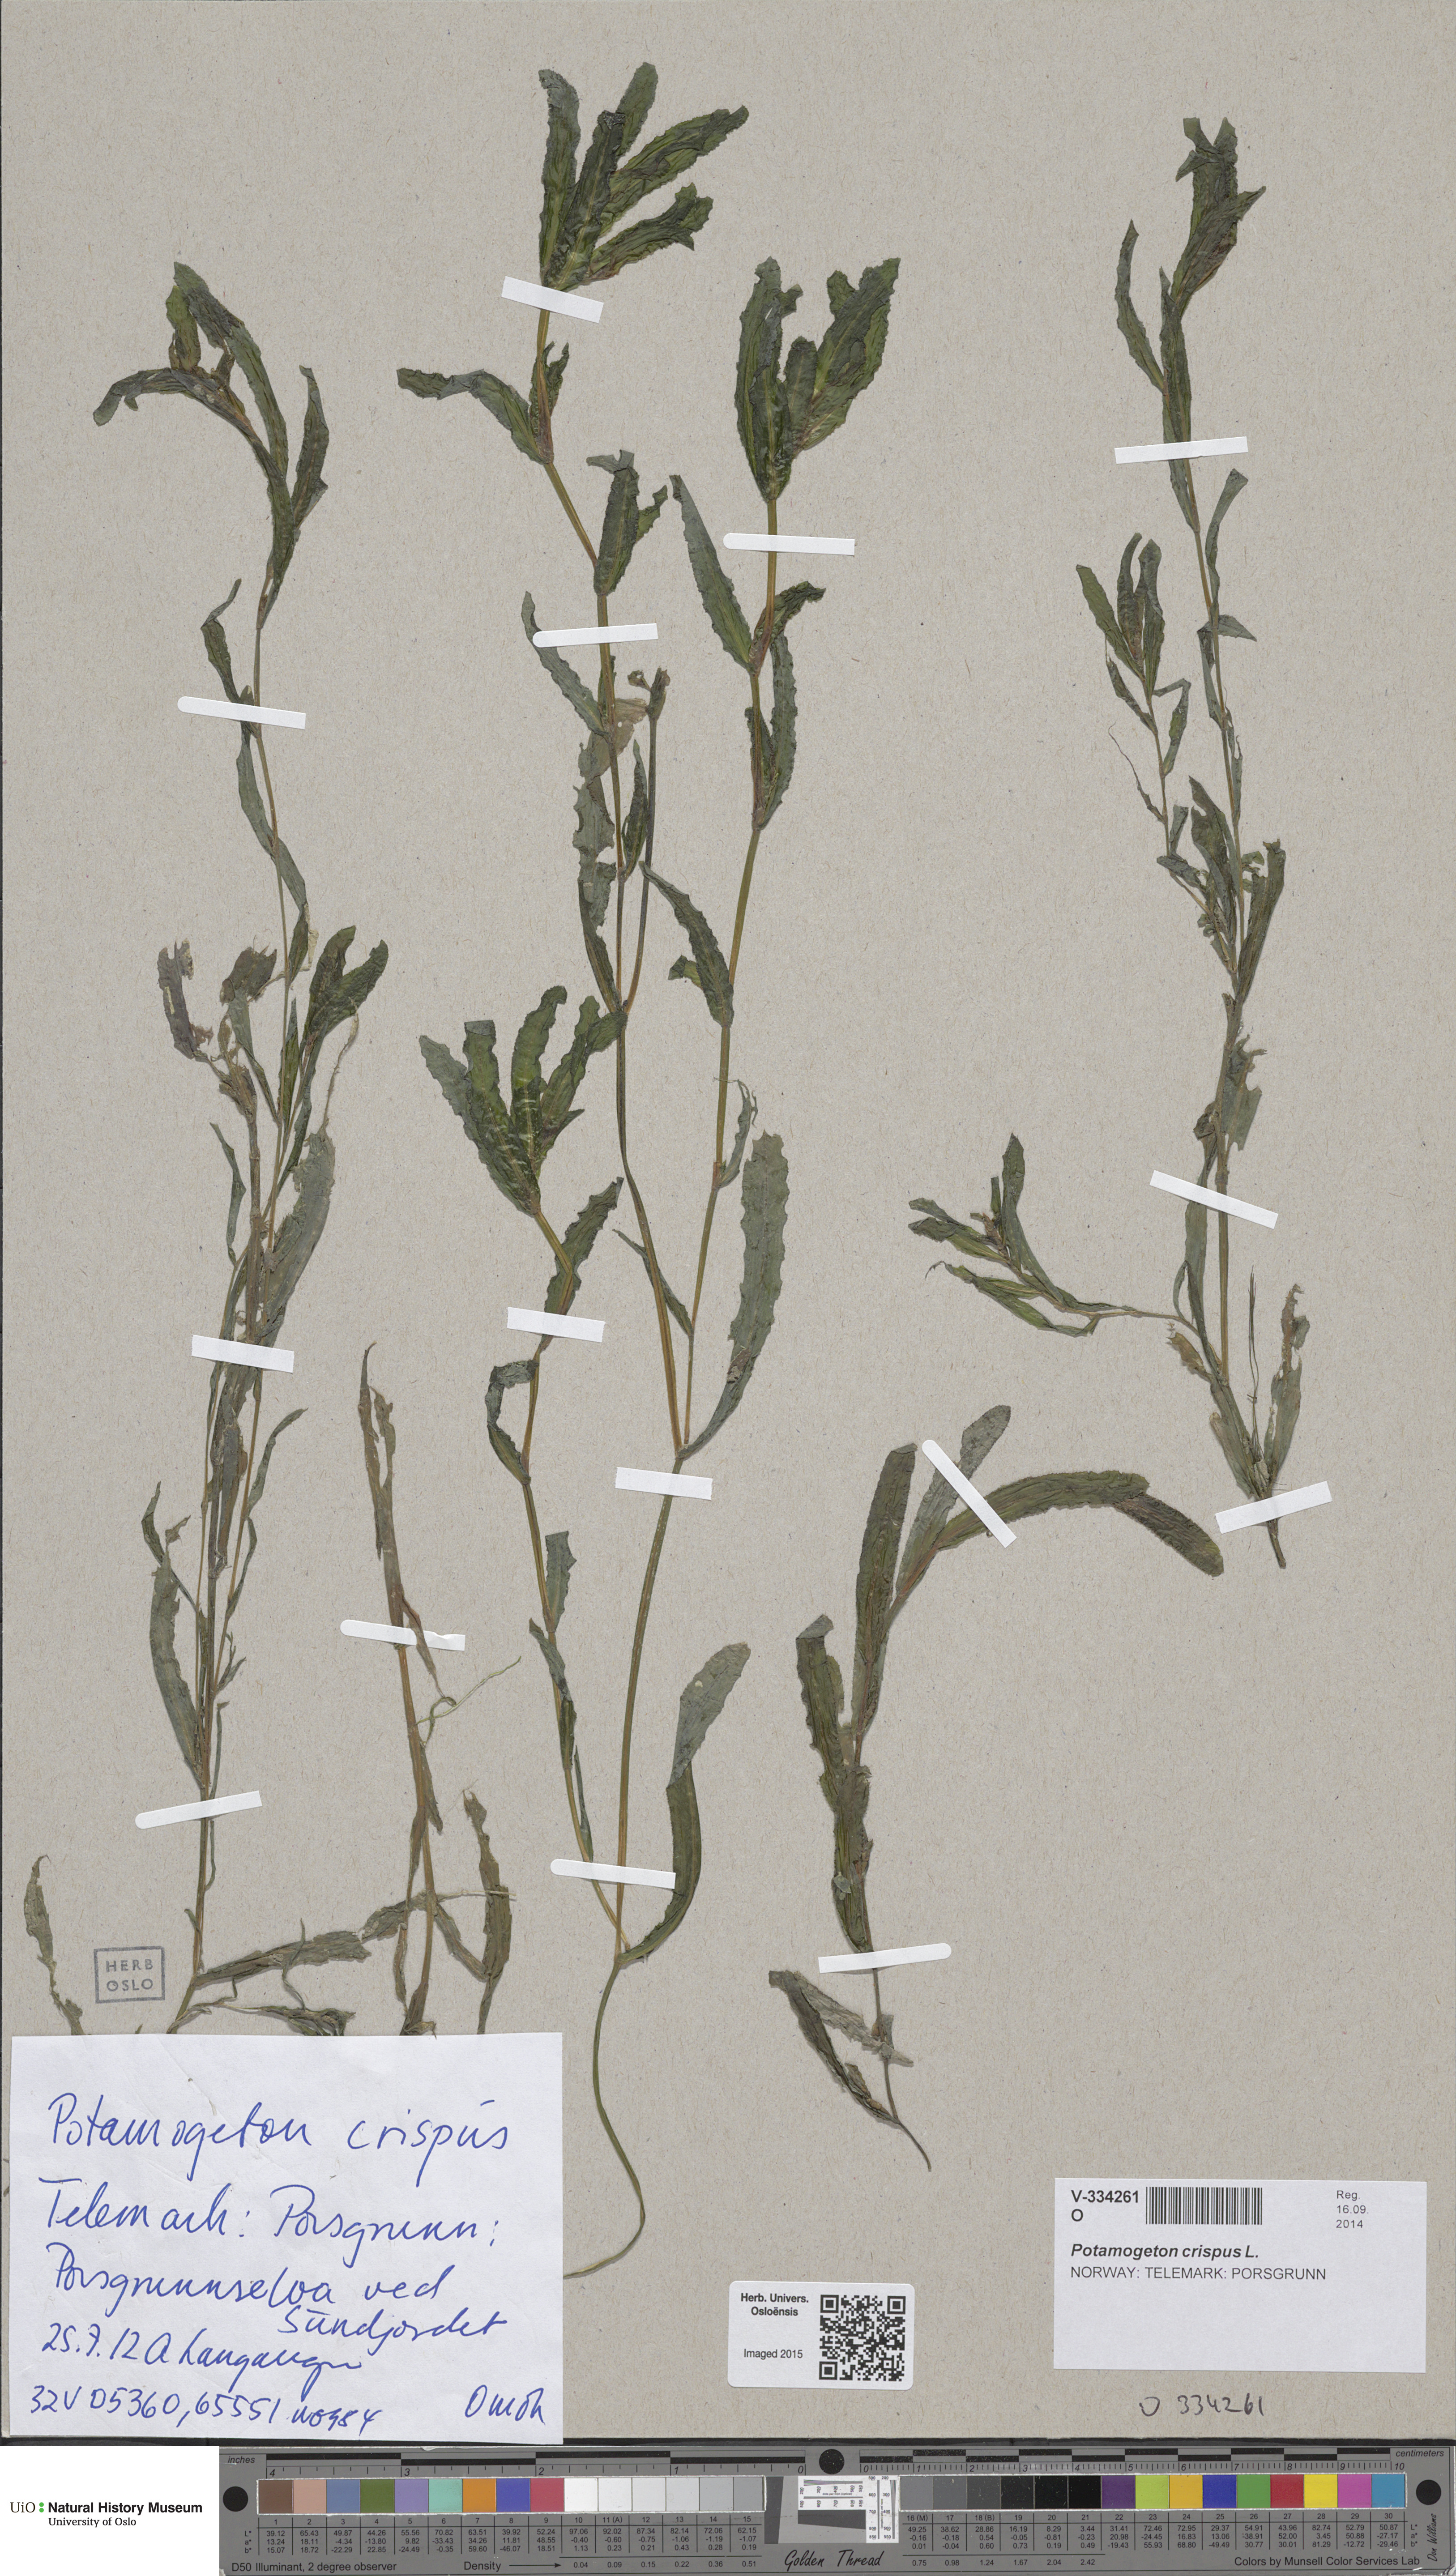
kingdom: Plantae
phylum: Tracheophyta
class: Liliopsida
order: Alismatales
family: Potamogetonaceae
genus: Potamogeton
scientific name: Potamogeton crispus
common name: Curled pondweed
